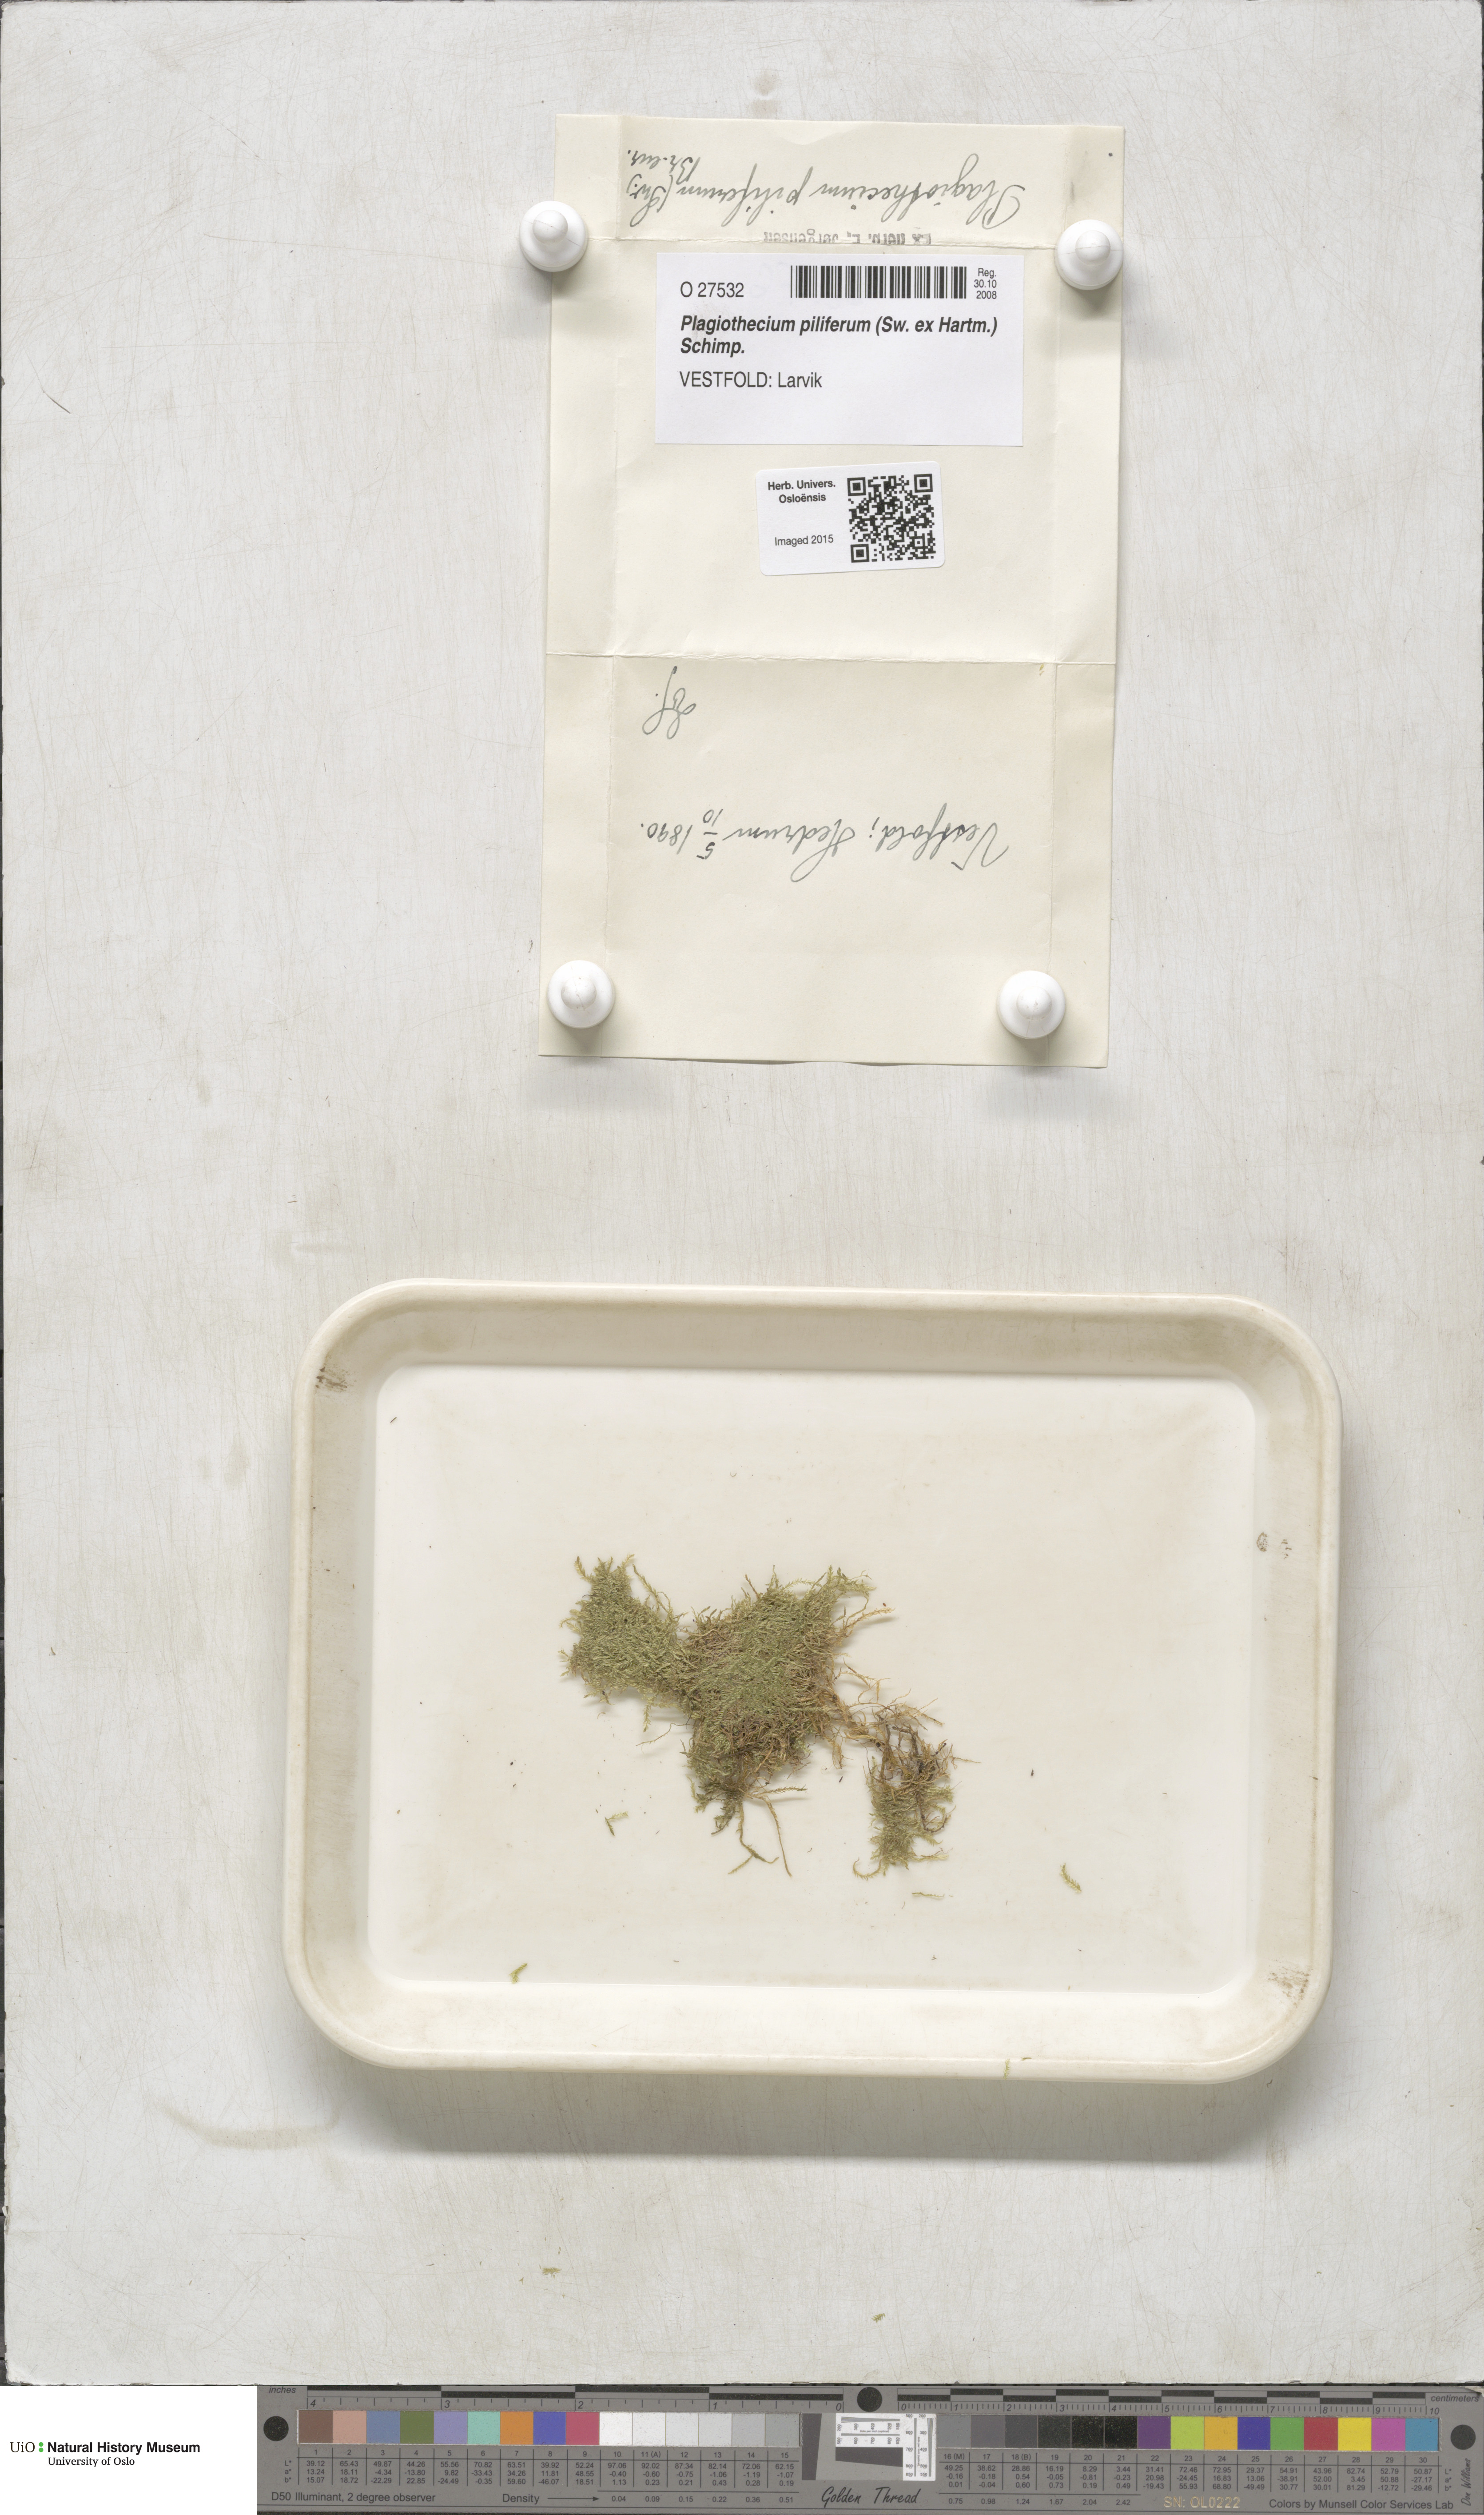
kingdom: Plantae
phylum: Bryophyta
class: Bryopsida
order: Hypnales
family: Plagiotheciaceae
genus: Rectithecium
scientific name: Rectithecium piliferum
